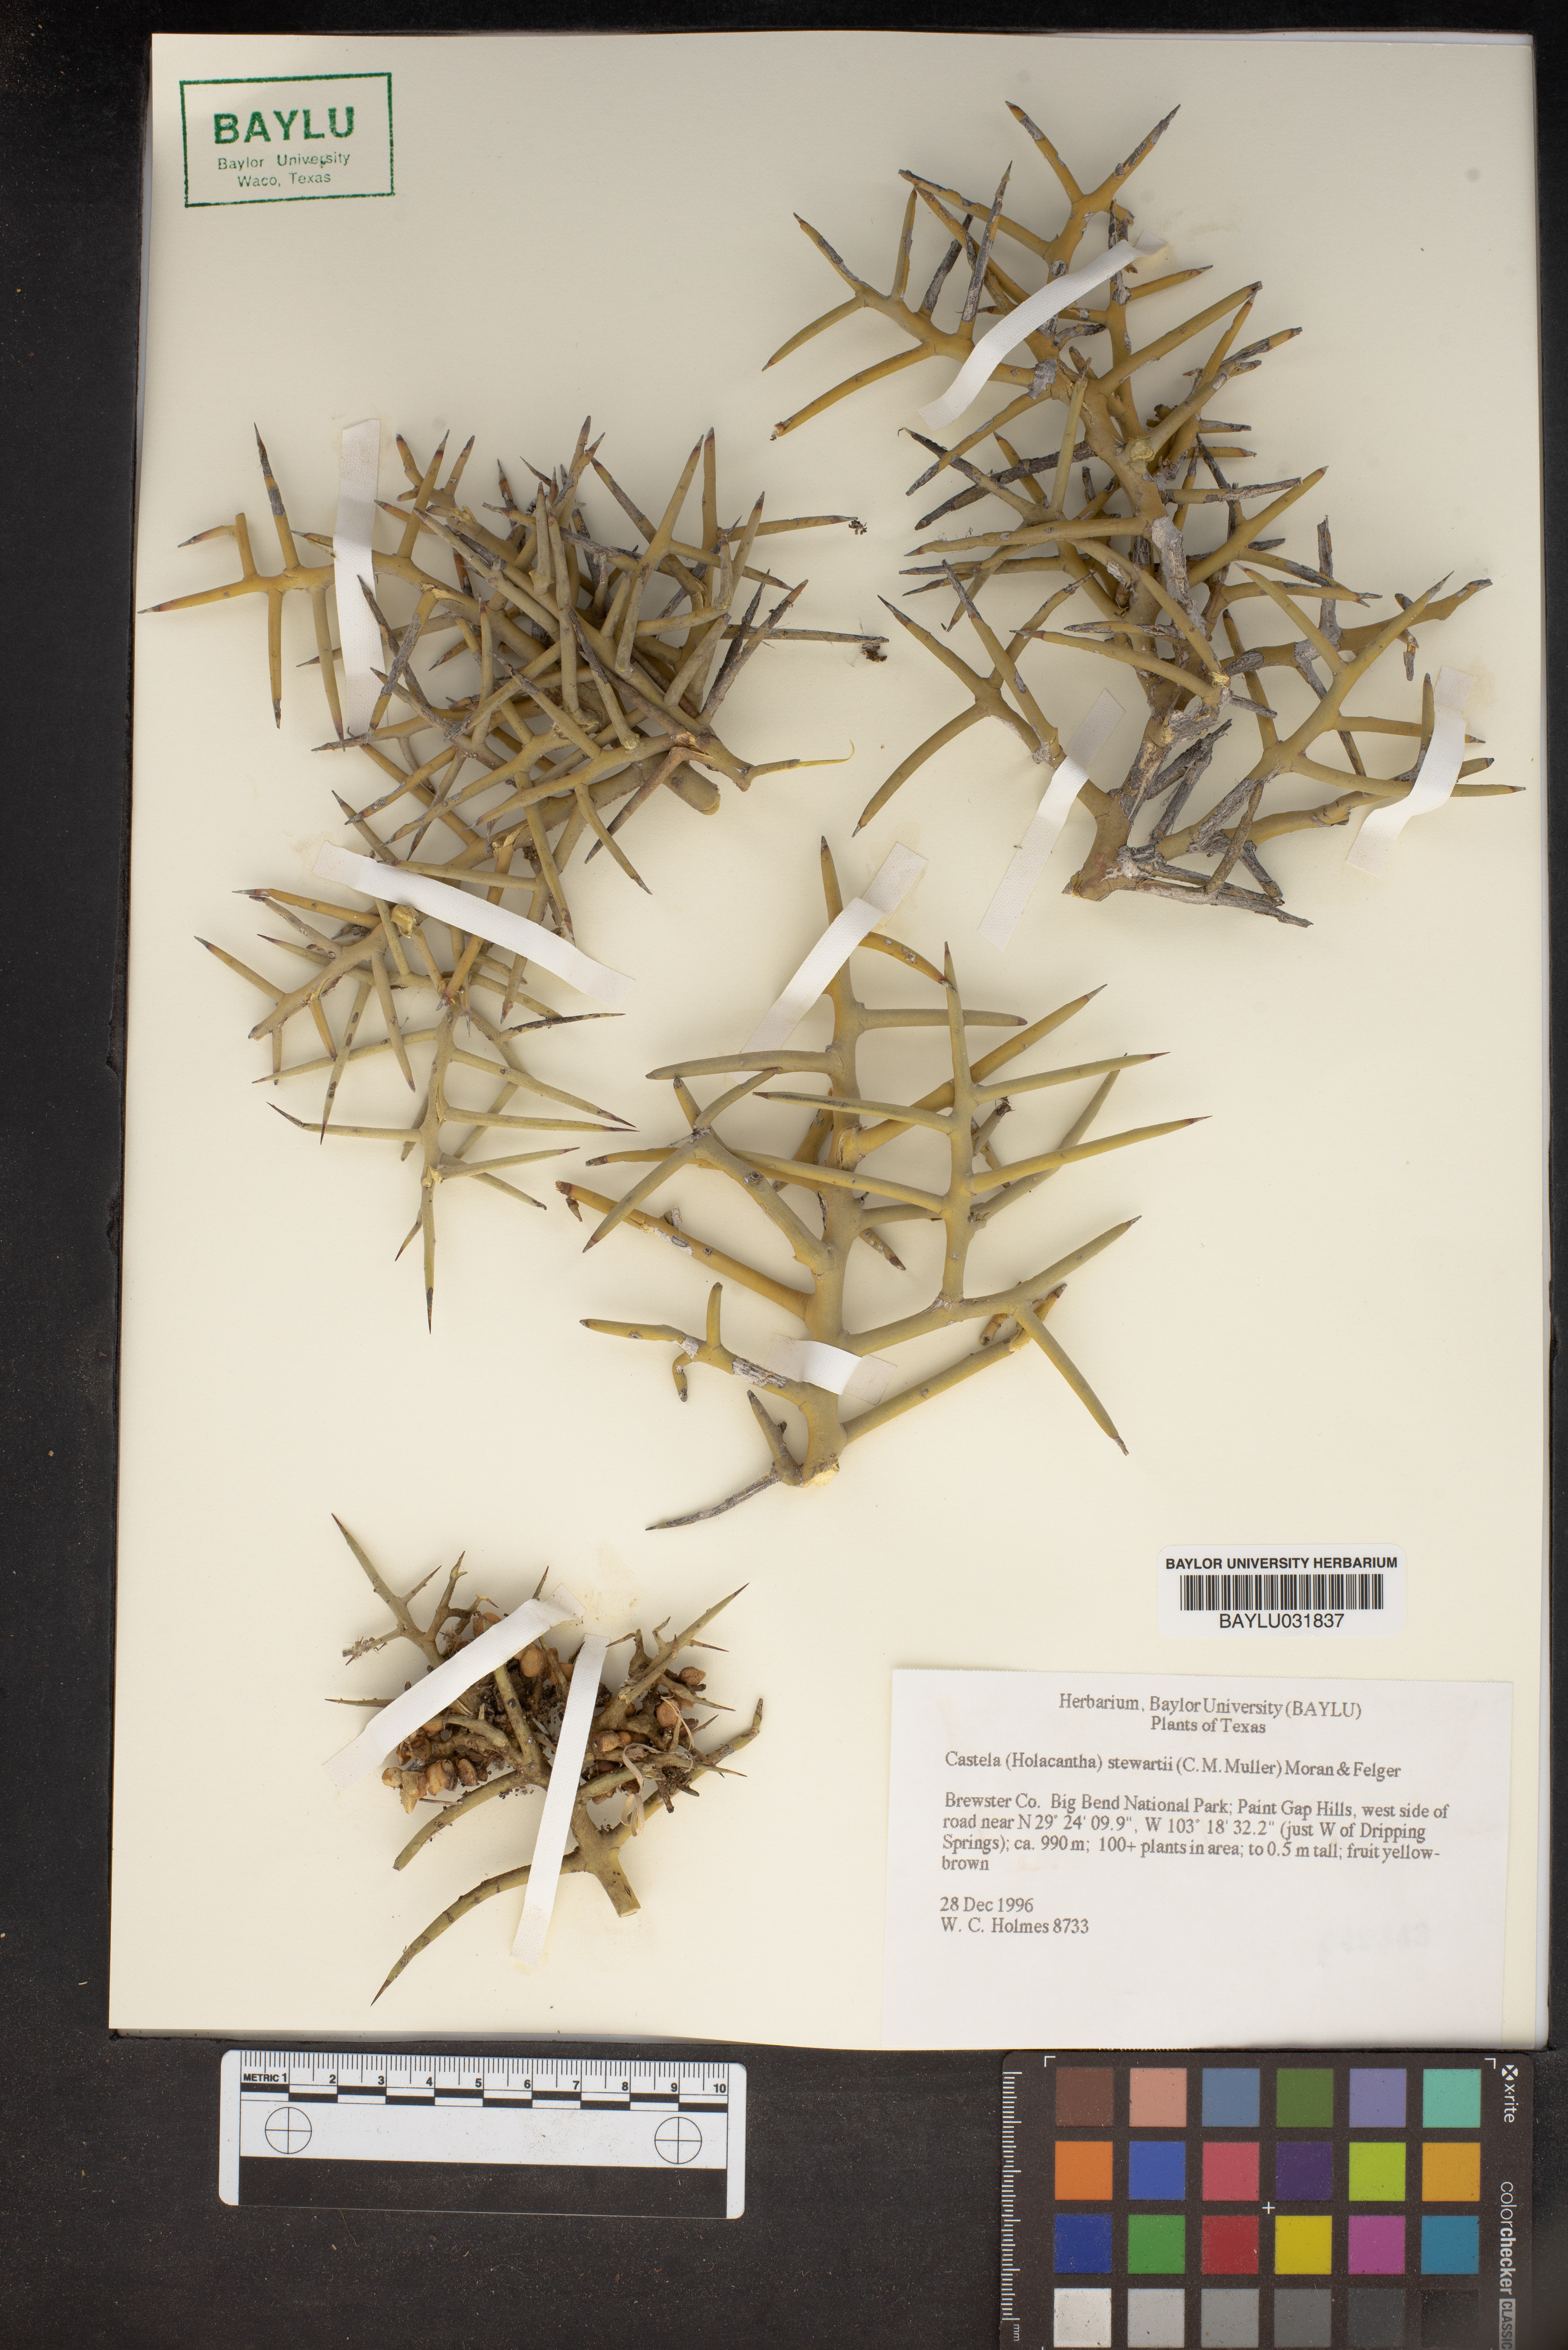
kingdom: Plantae
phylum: Tracheophyta
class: Magnoliopsida
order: Sapindales
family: Simaroubaceae
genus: Holacantha
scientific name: Holacantha stewartii
